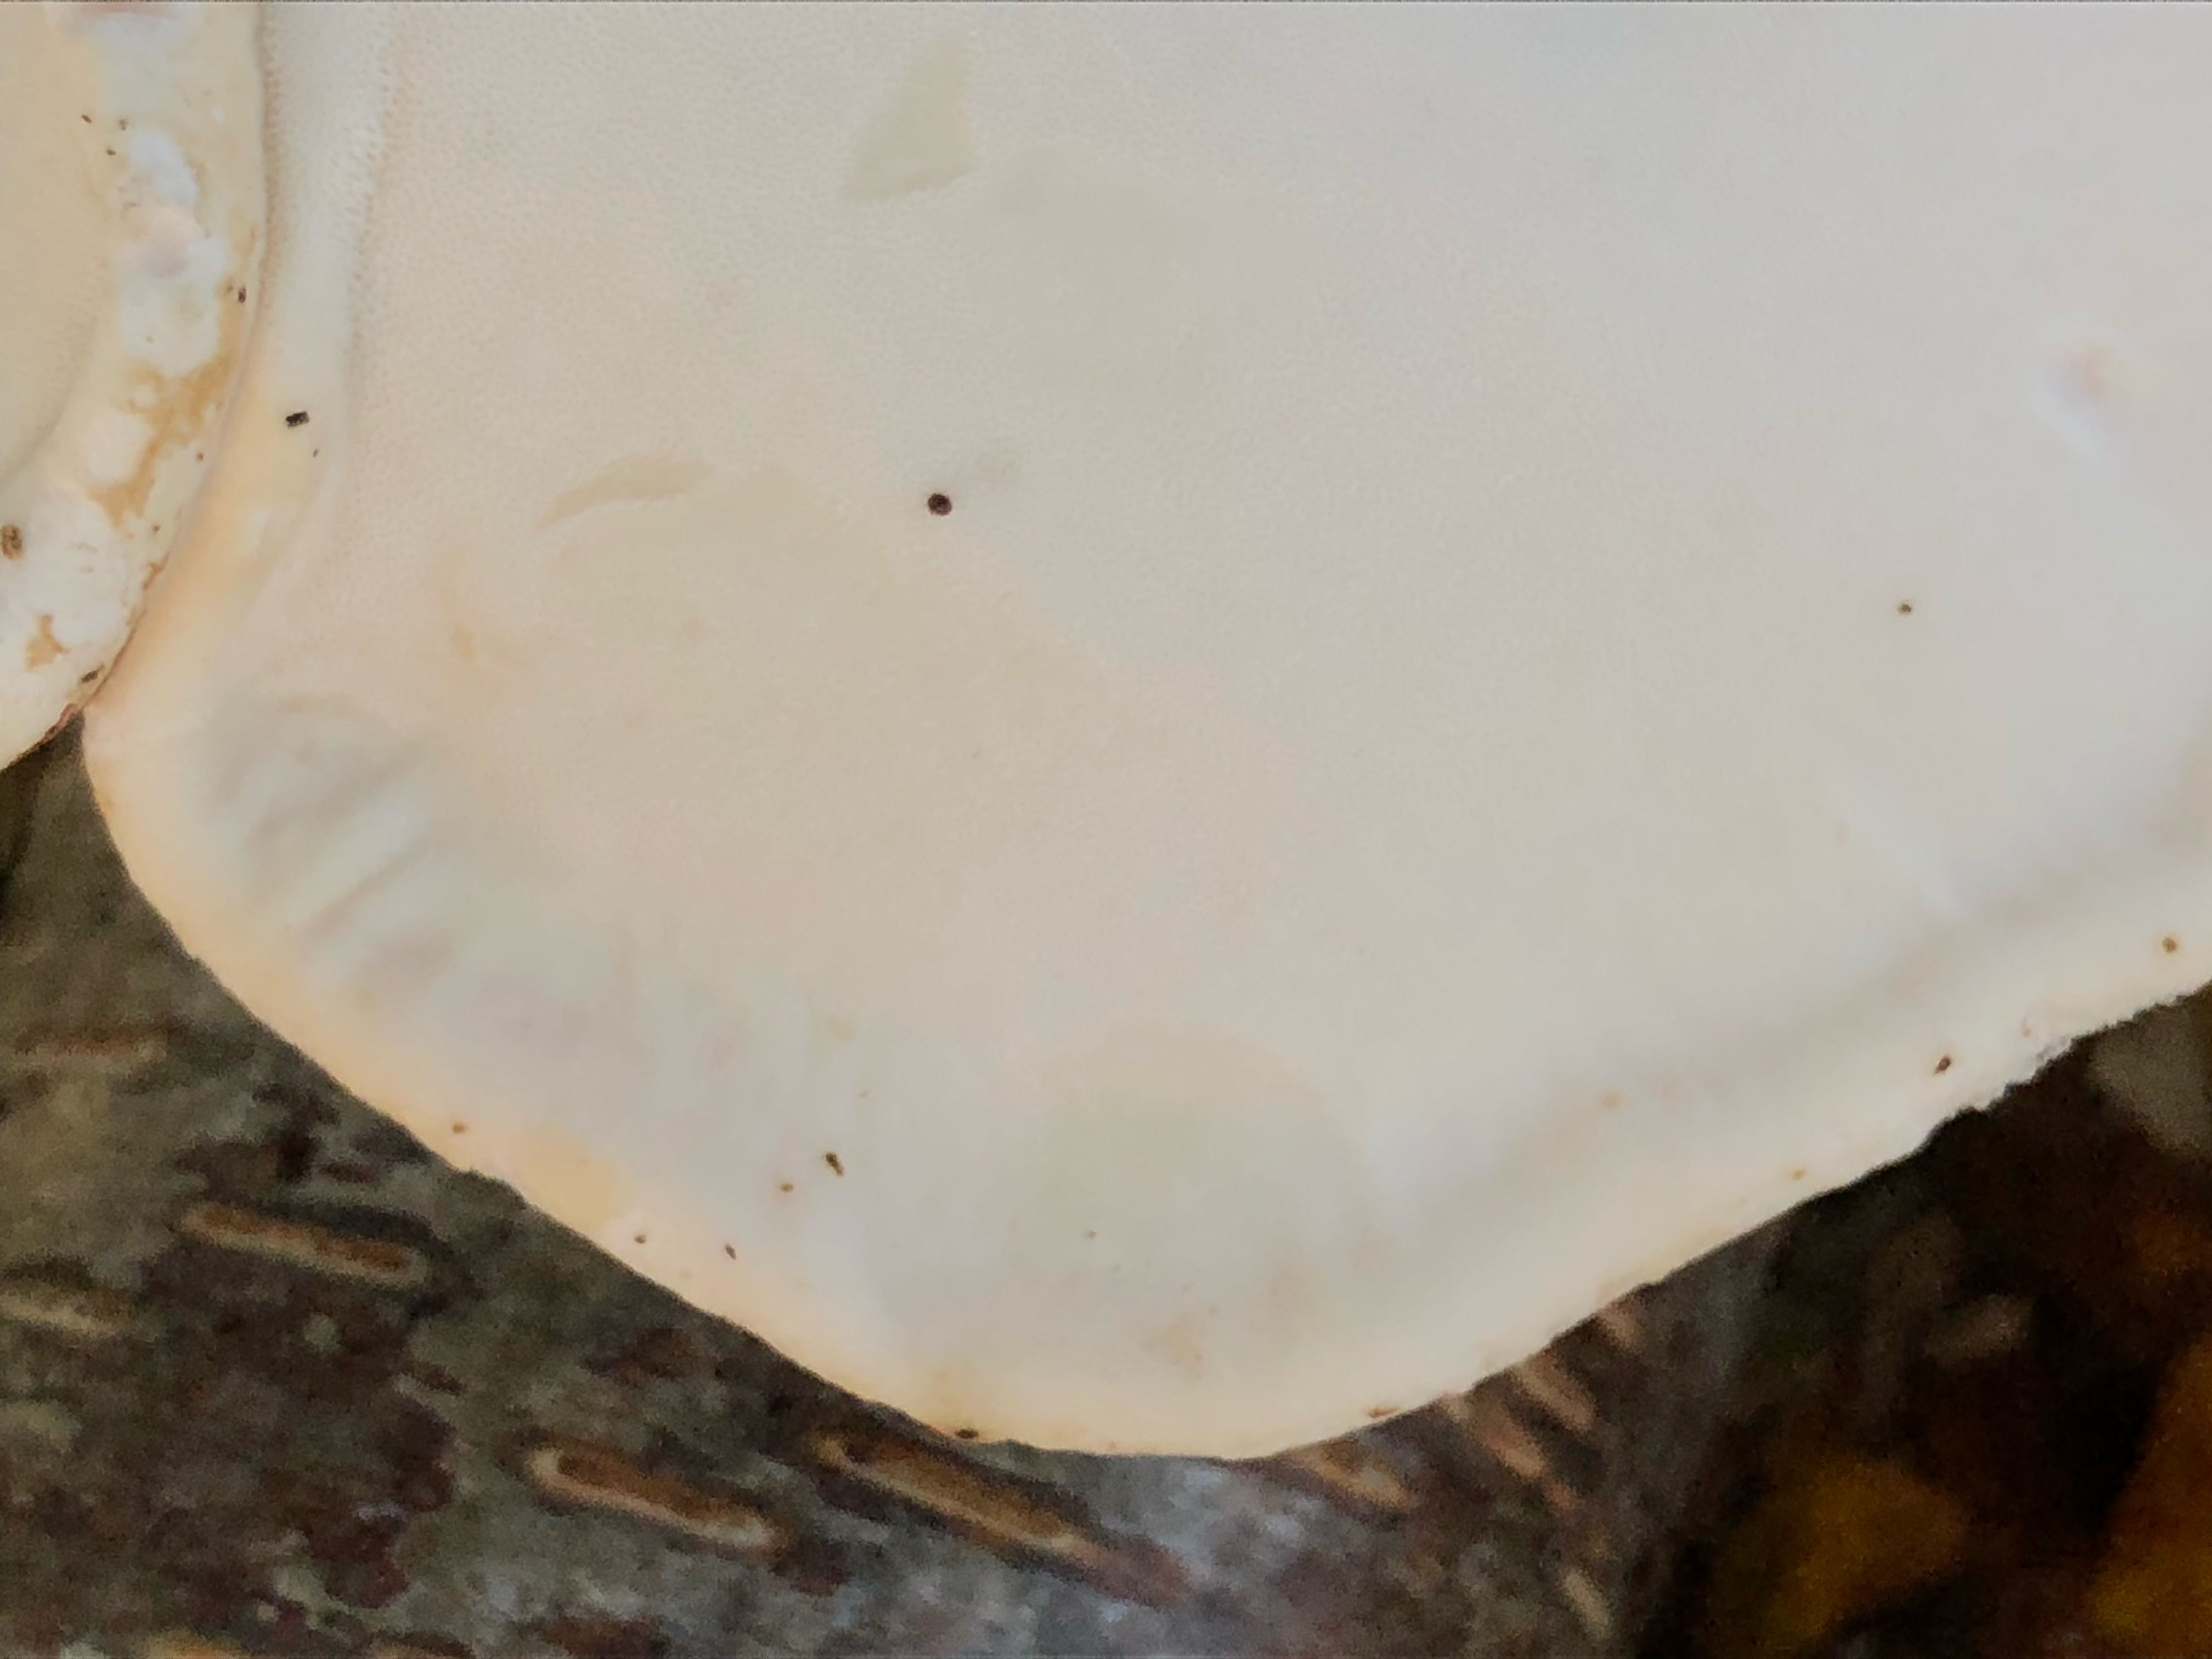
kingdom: Fungi
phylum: Basidiomycota
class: Agaricomycetes
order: Polyporales
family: Fomitopsidaceae
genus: Fomitopsis
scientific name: Fomitopsis betulina
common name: birkeporesvamp
